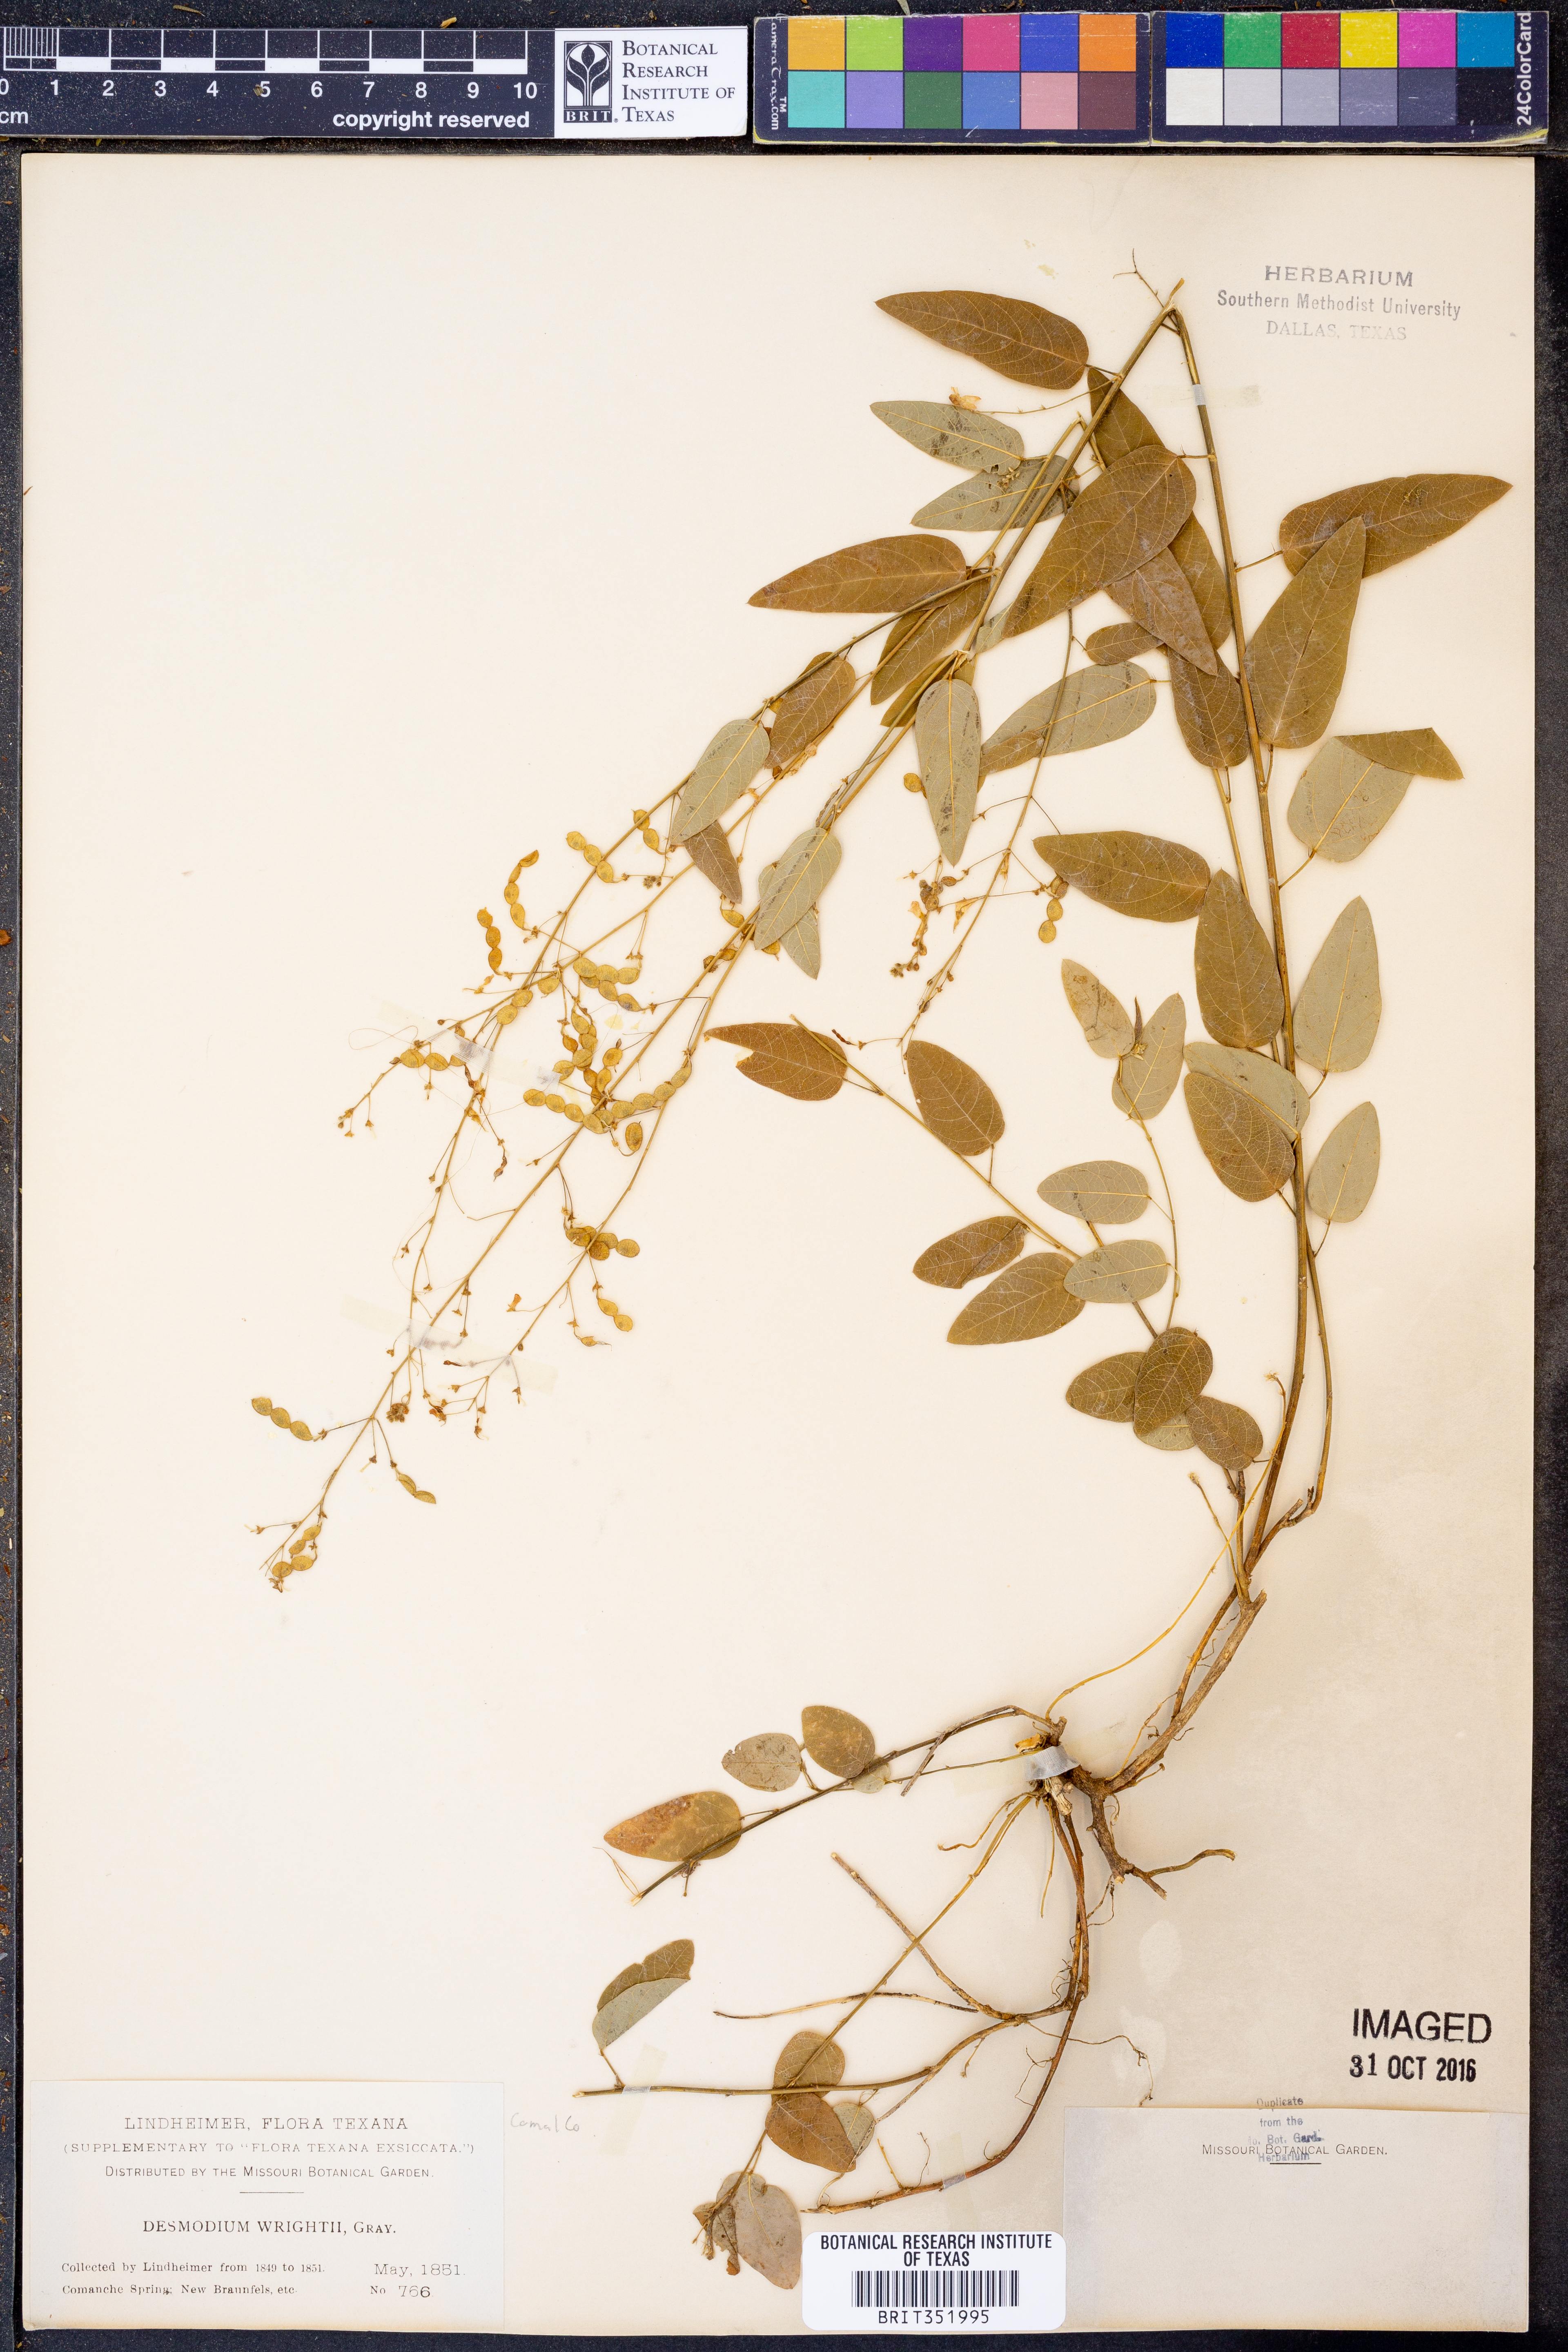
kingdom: Plantae
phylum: Tracheophyta
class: Magnoliopsida
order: Fabales
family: Fabaceae
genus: Desmodium
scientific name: Desmodium psilophyllum
